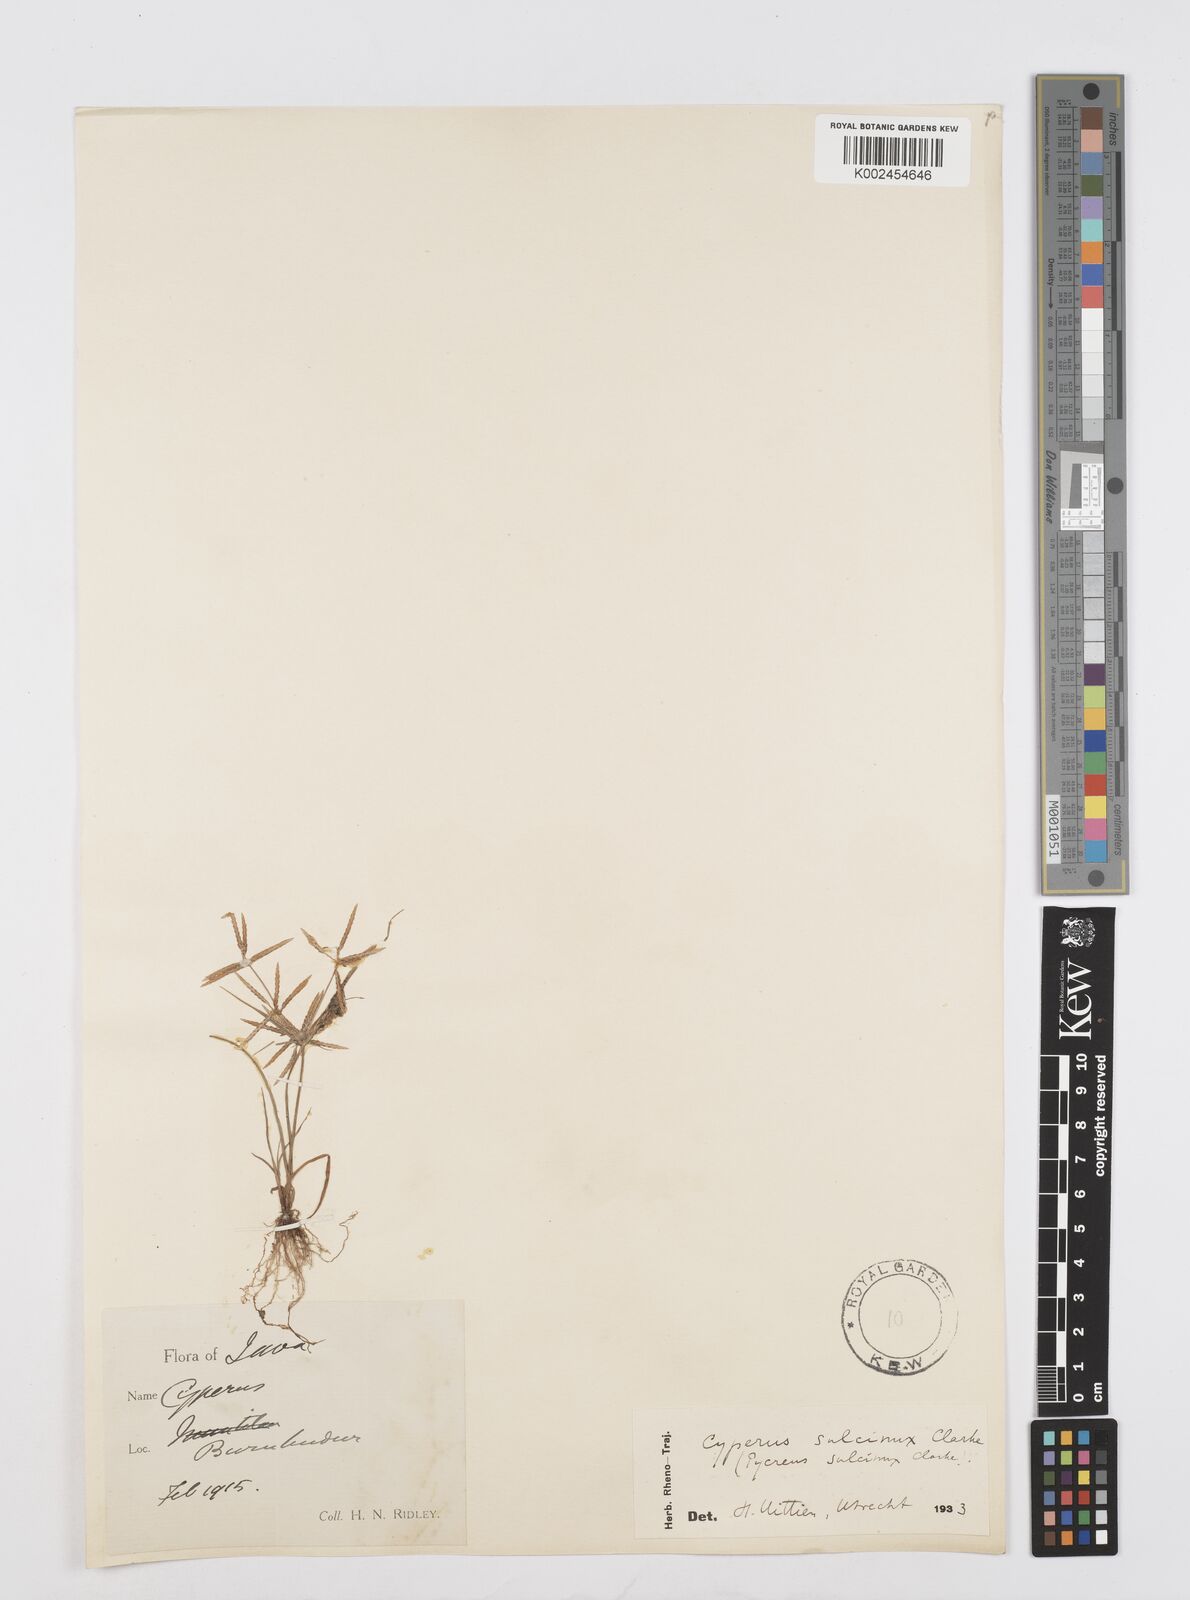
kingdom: Plantae
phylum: Tracheophyta
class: Liliopsida
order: Poales
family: Cyperaceae
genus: Cyperus
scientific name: Cyperus sulcinux
